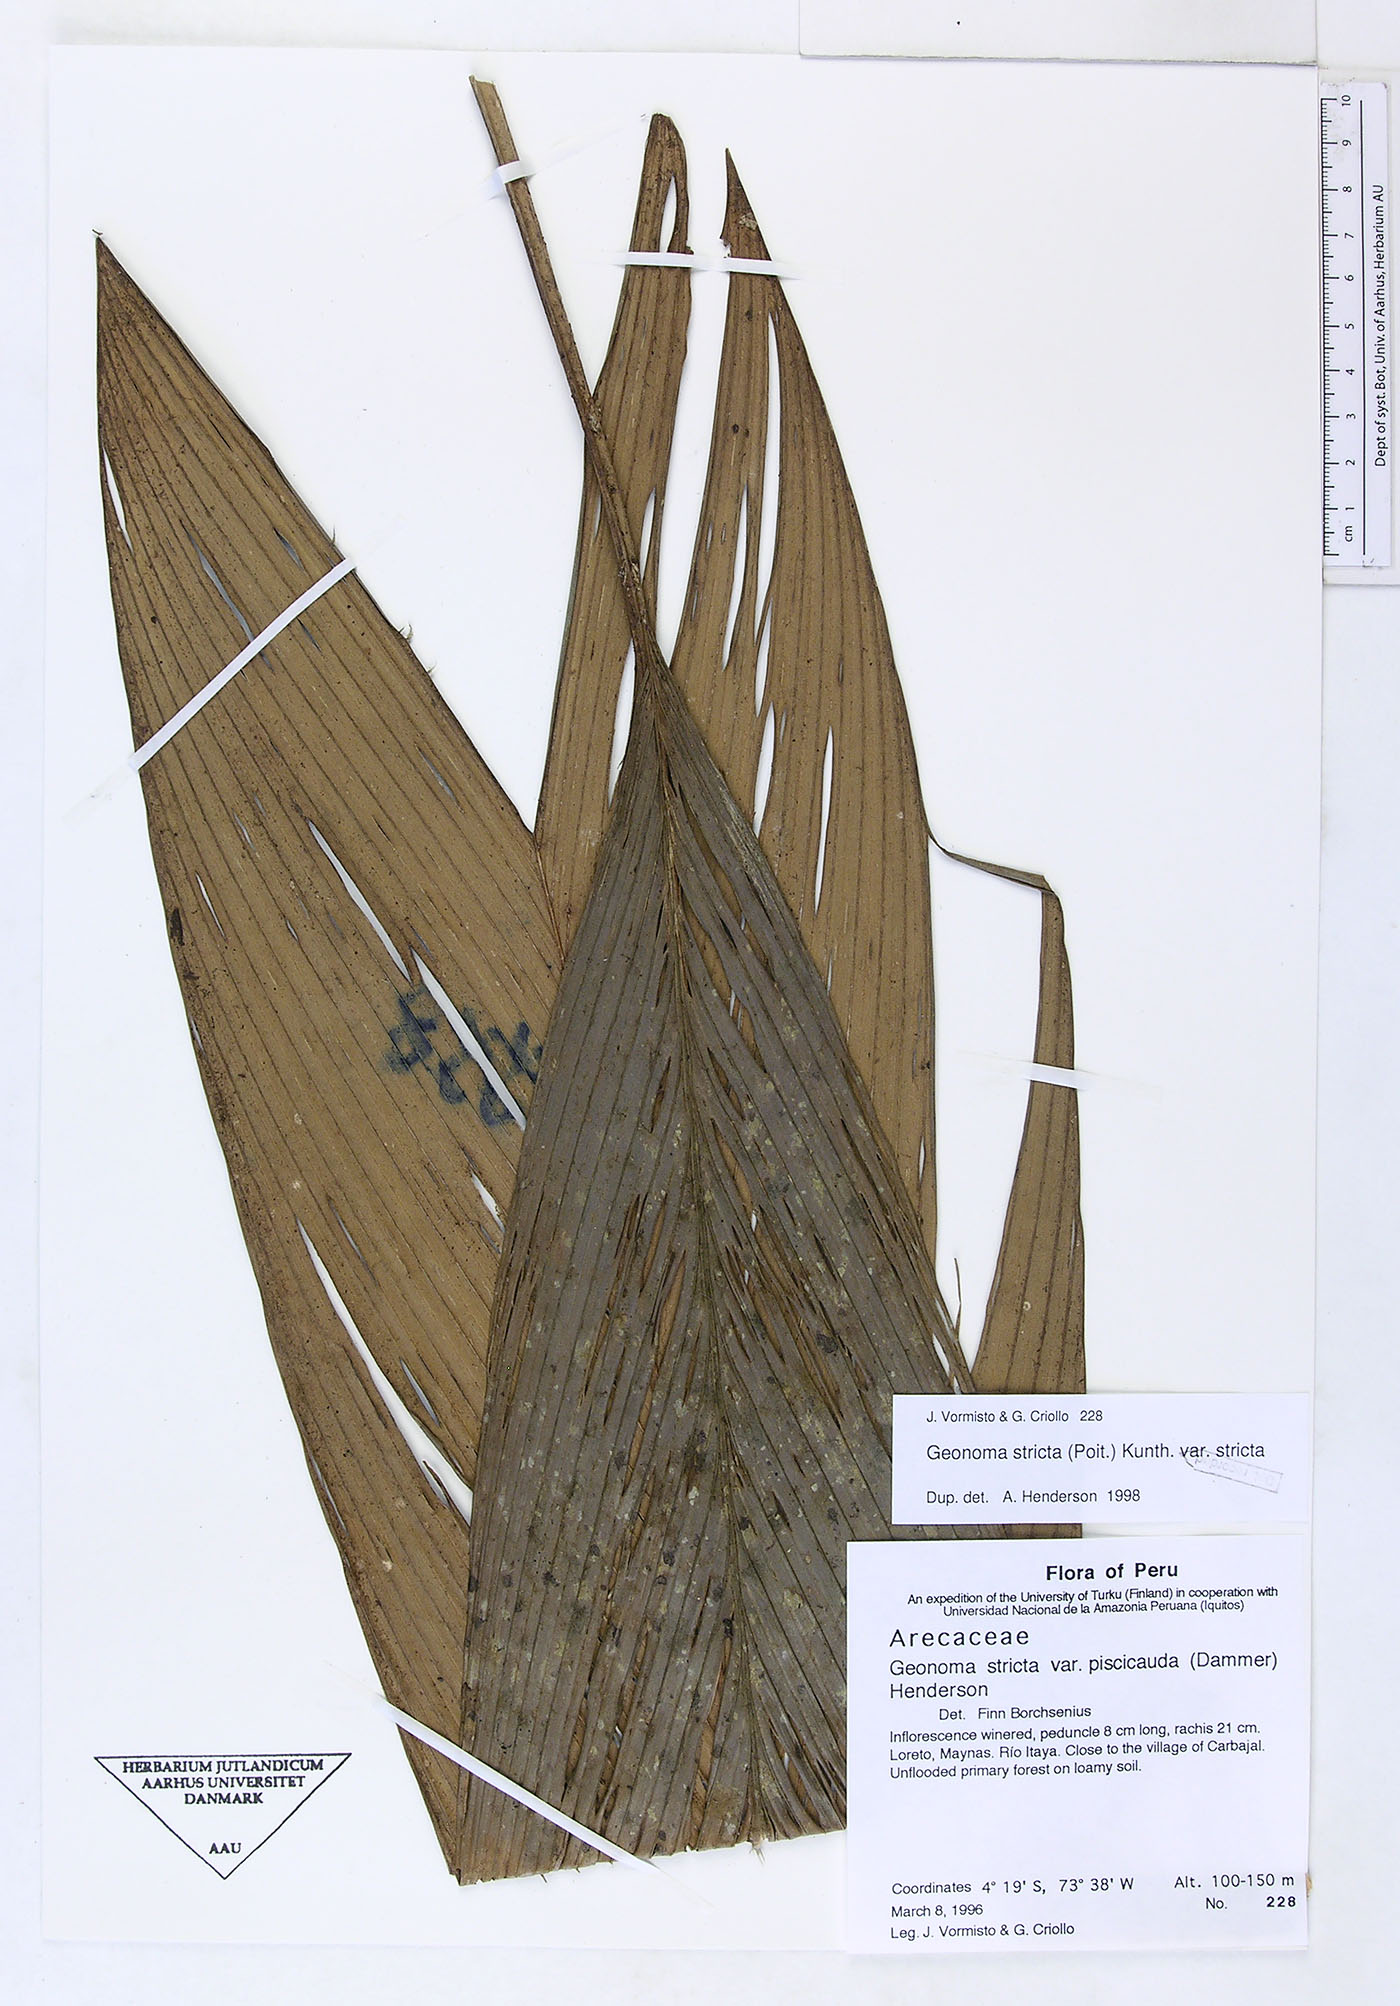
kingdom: Plantae
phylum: Tracheophyta
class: Liliopsida
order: Arecales
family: Arecaceae
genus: Geonoma
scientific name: Geonoma stricta
